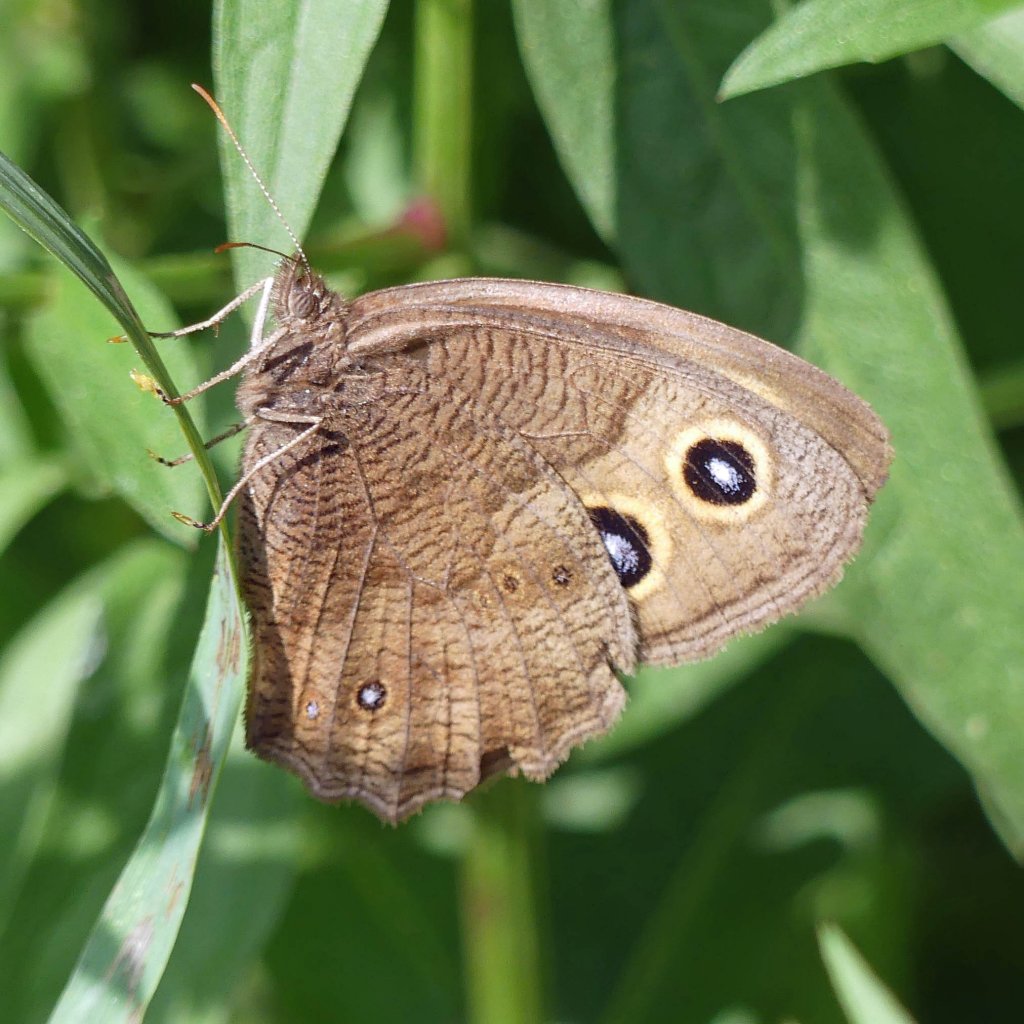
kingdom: Animalia
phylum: Arthropoda
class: Insecta
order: Lepidoptera
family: Nymphalidae
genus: Cercyonis
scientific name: Cercyonis pegala
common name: Common Wood-Nymph
